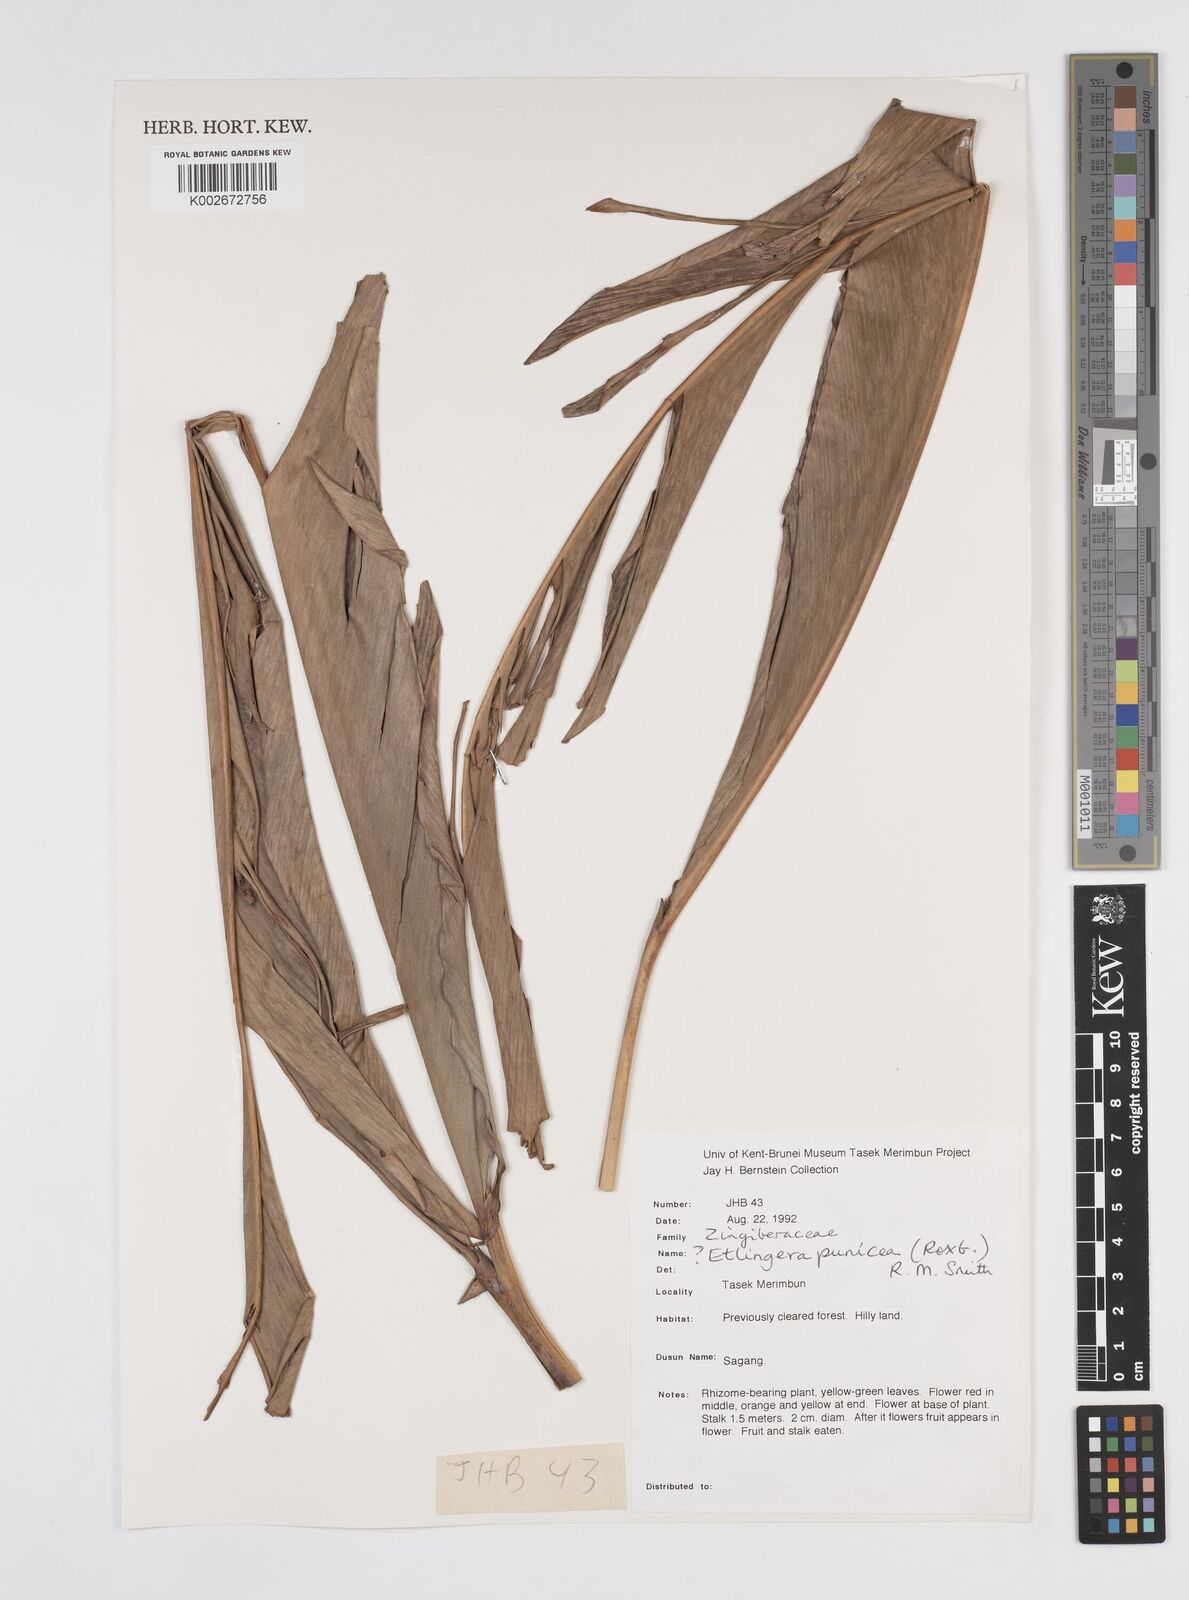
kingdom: Plantae
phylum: Tracheophyta
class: Liliopsida
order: Zingiberales
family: Zingiberaceae
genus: Etlingera
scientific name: Etlingera punicea
